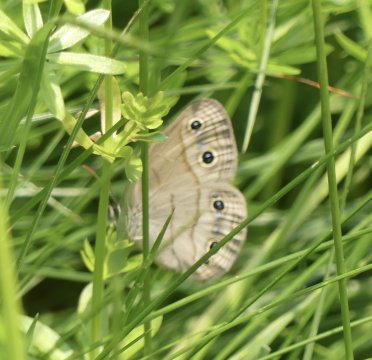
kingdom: Animalia
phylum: Arthropoda
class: Insecta
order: Lepidoptera
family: Nymphalidae
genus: Euptychia
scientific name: Euptychia cymela
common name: Little Wood Satyr
